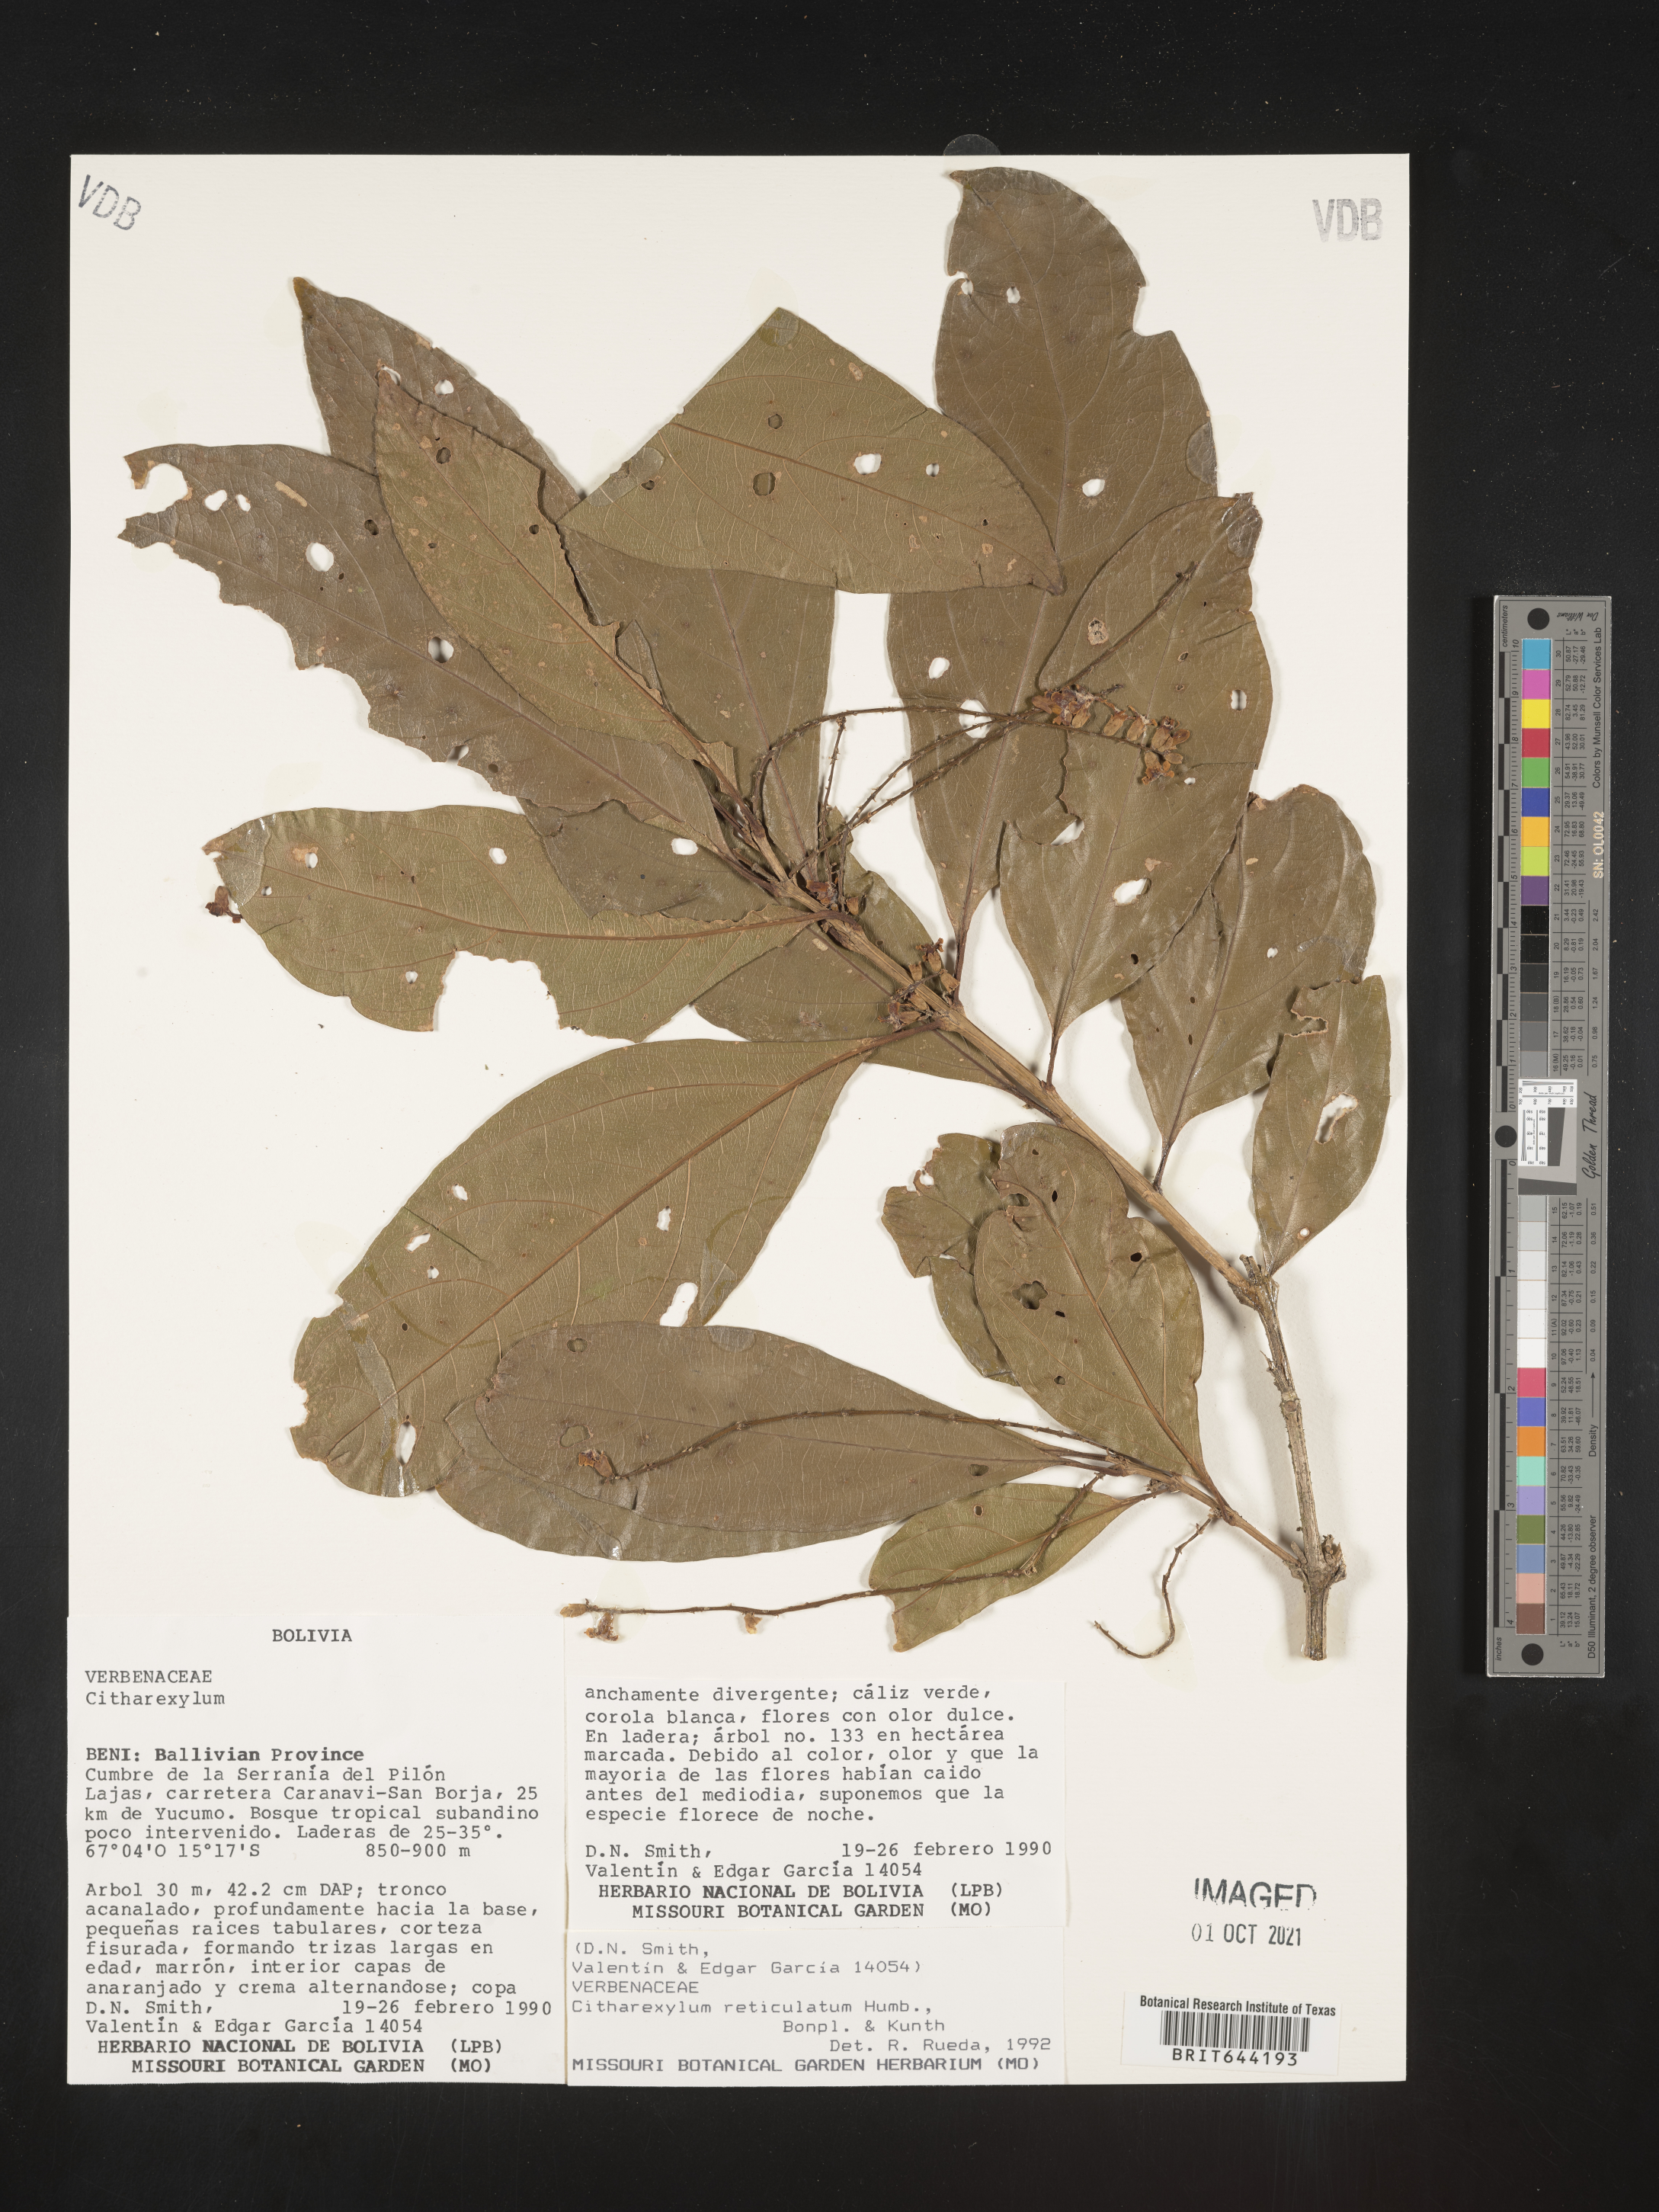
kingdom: Plantae
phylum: Tracheophyta
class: Magnoliopsida
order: Lamiales
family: Verbenaceae
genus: Citharexylum
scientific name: Citharexylum
